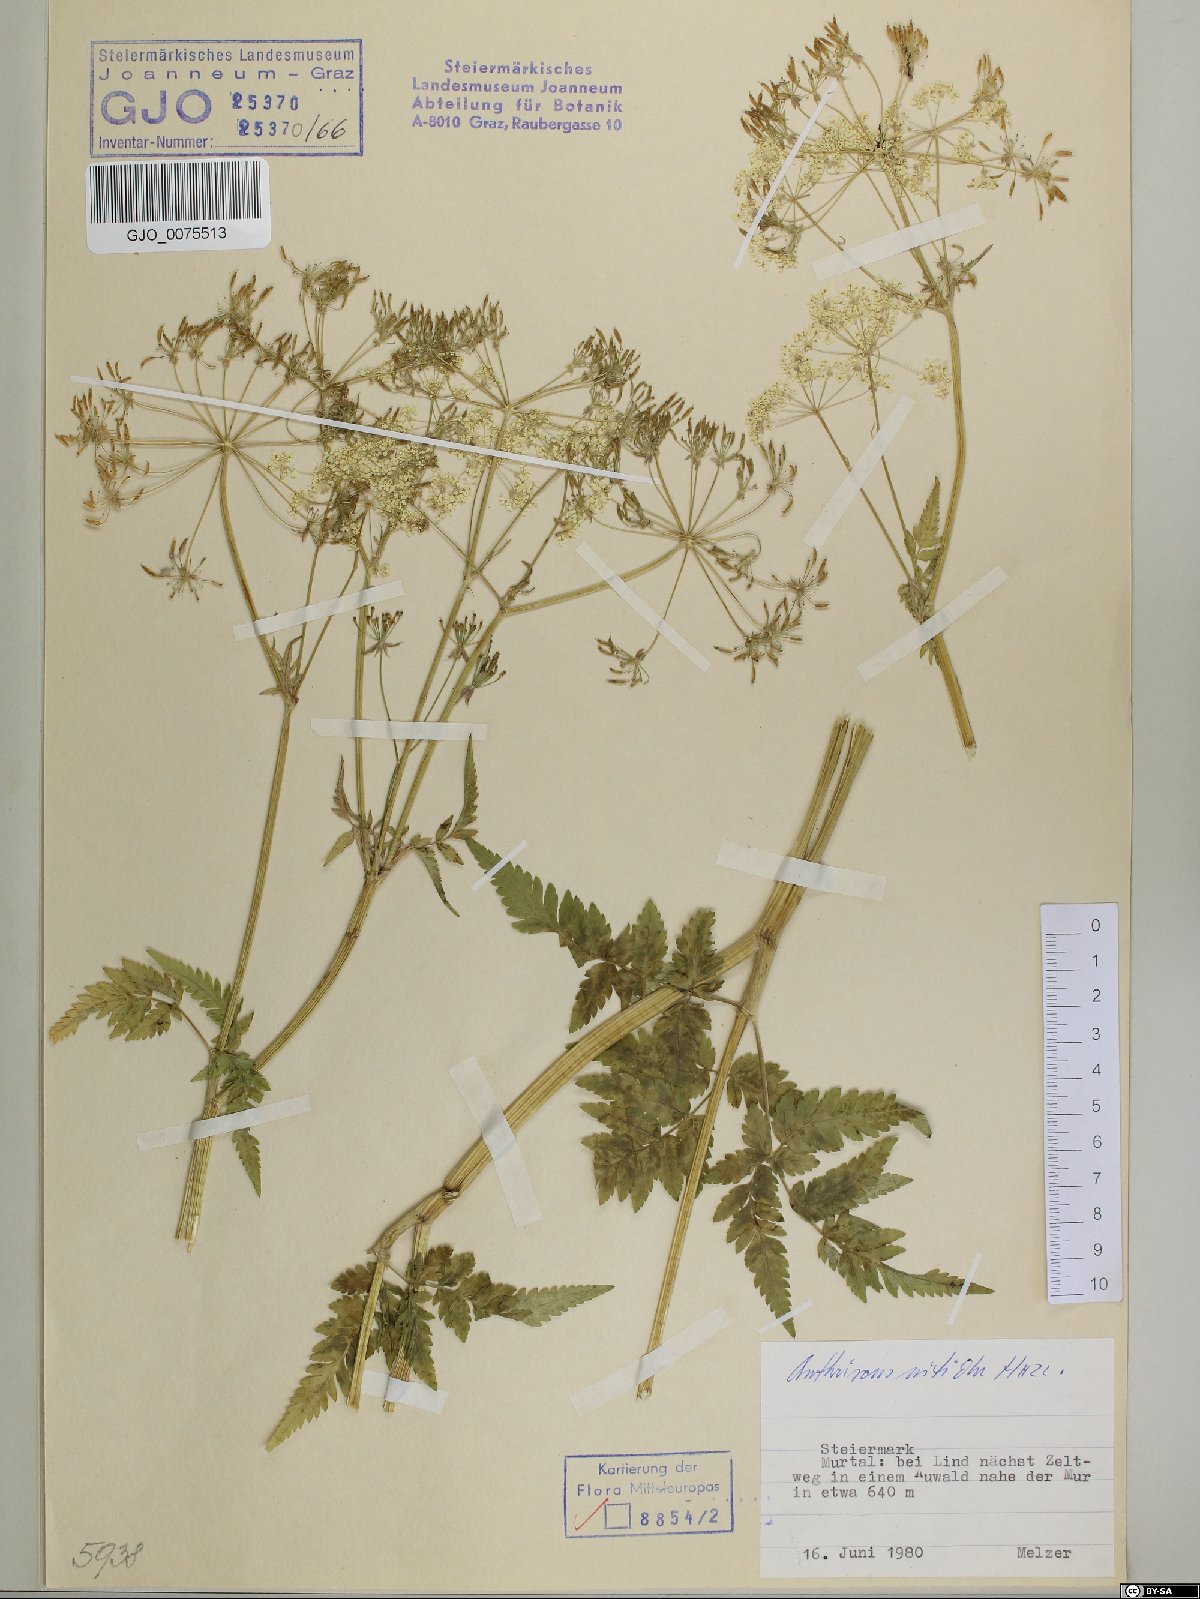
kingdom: Plantae
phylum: Tracheophyta
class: Magnoliopsida
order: Apiales
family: Apiaceae
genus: Anthriscus
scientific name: Anthriscus nitida
